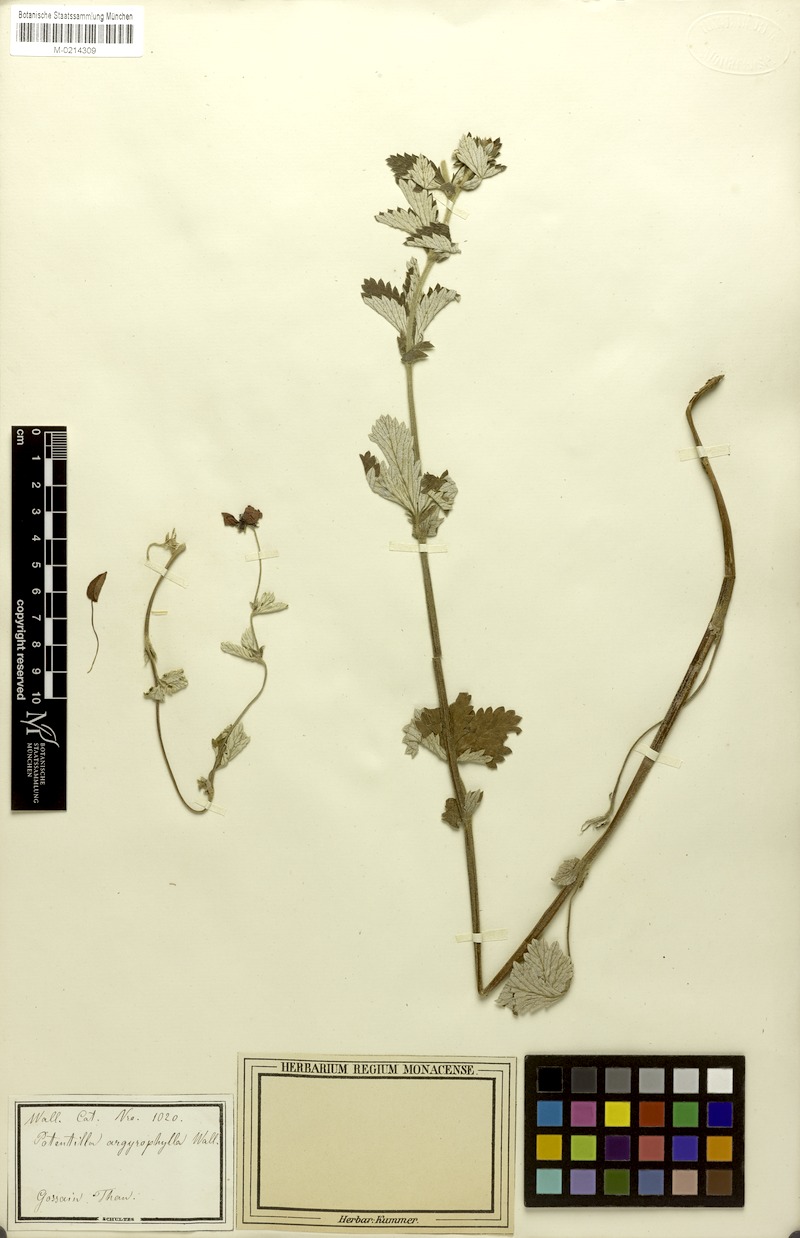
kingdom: Plantae
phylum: Tracheophyta
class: Magnoliopsida
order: Rosales
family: Rosaceae
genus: Potentilla
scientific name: Potentilla argyrophylla
